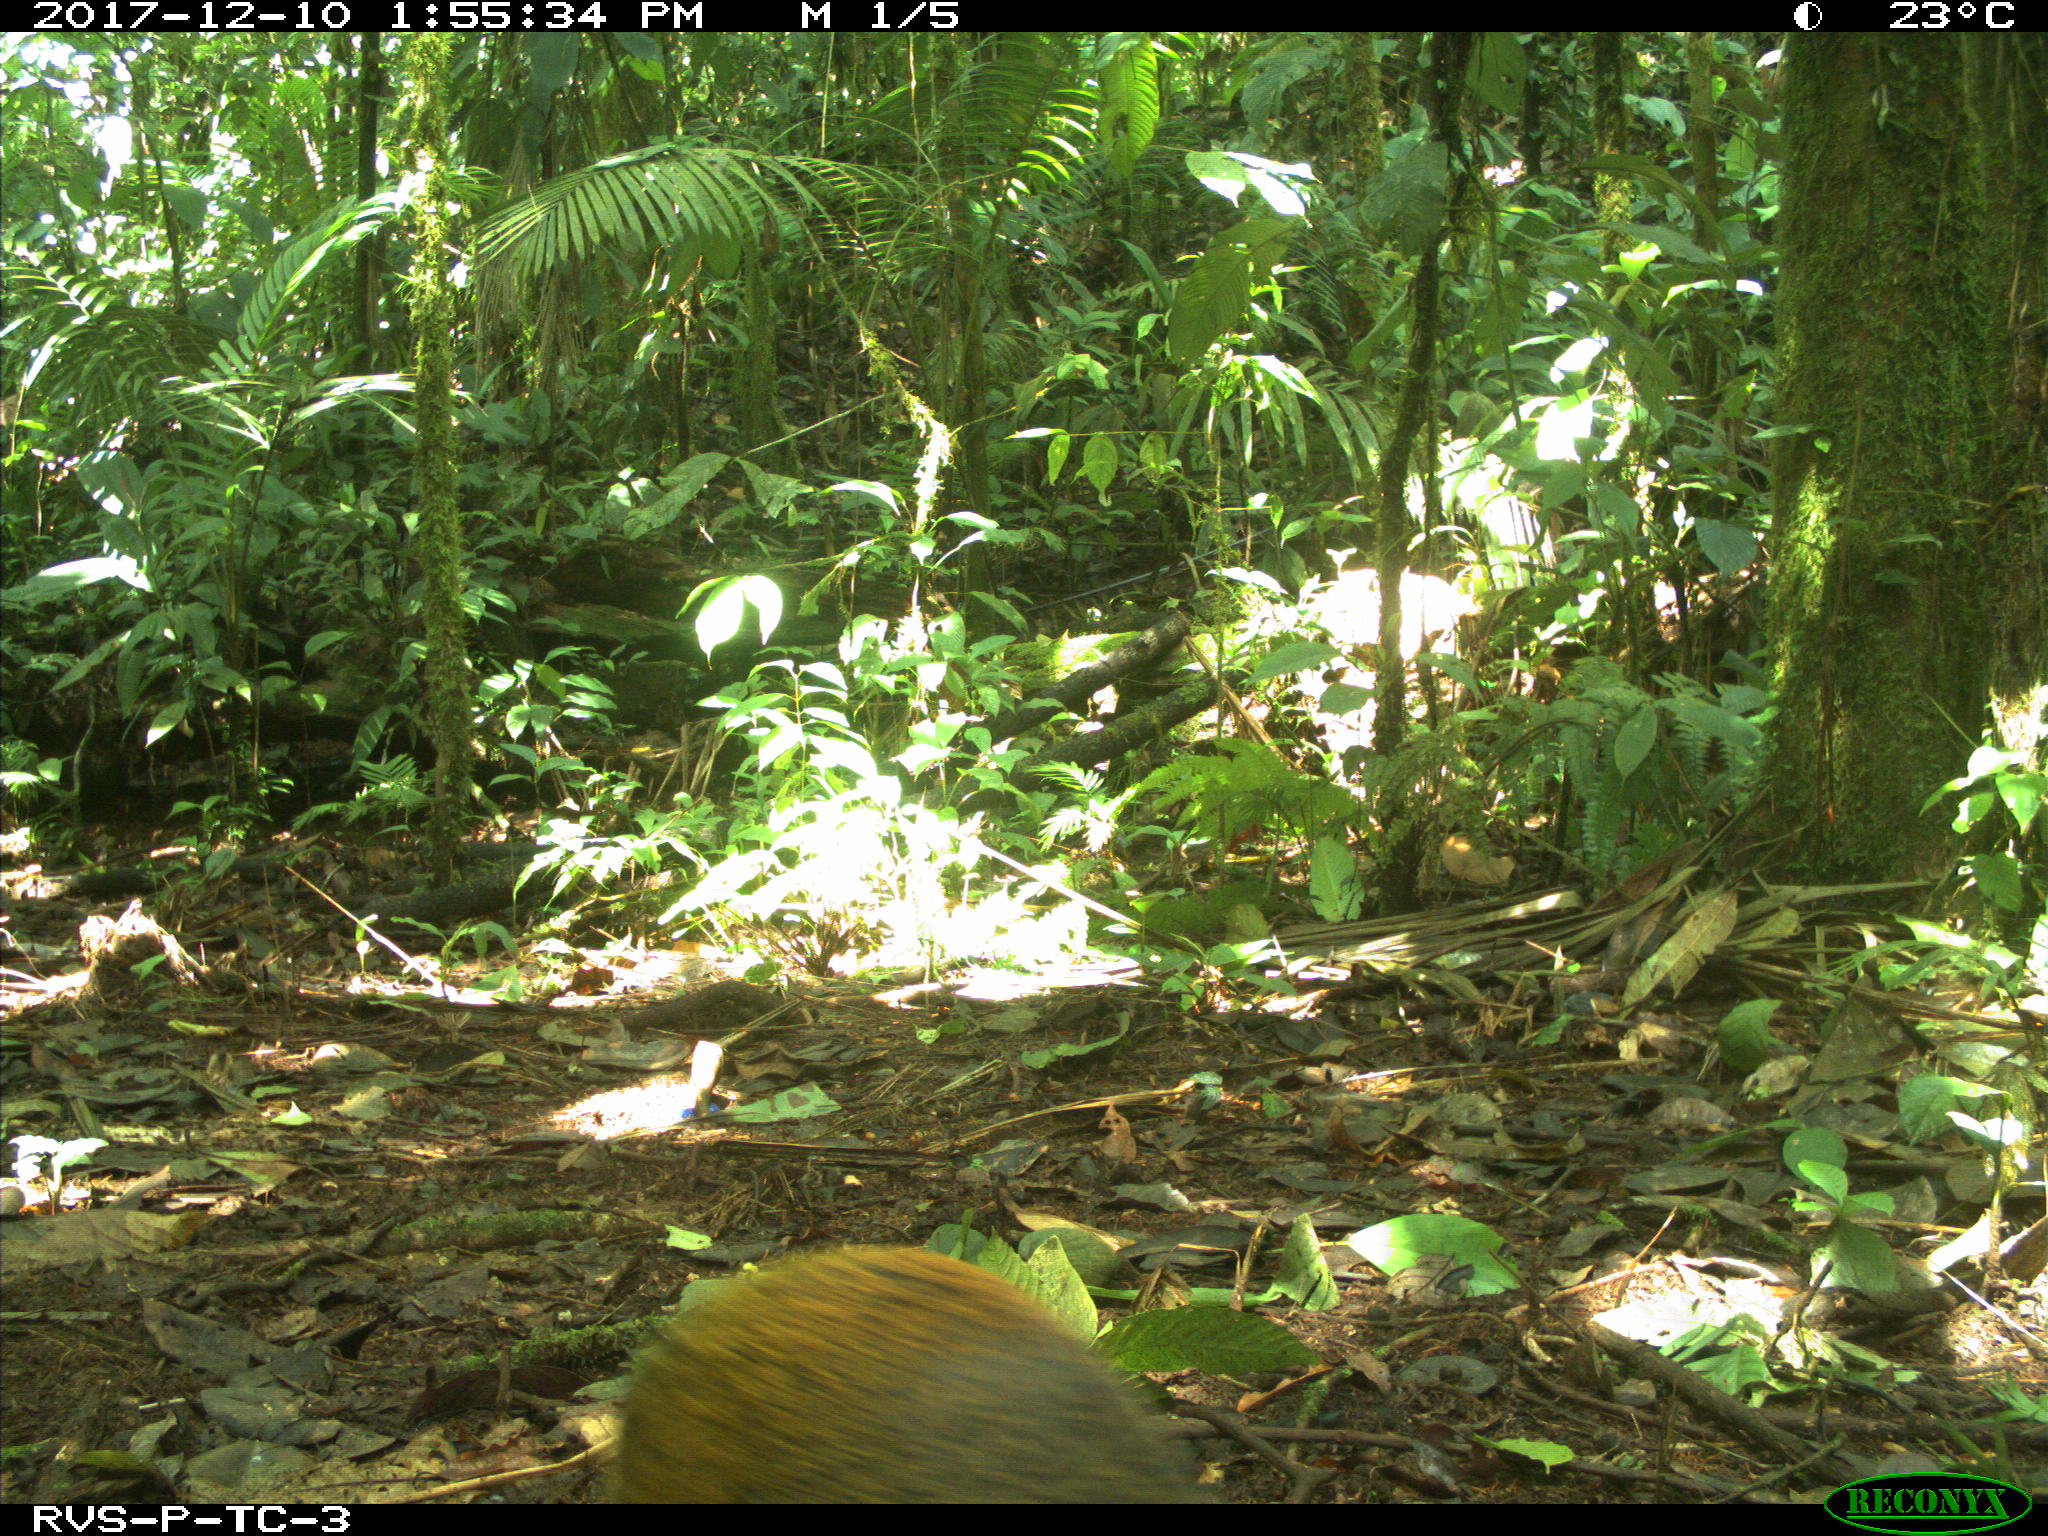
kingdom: Animalia
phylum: Chordata
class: Mammalia
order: Rodentia
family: Dasyproctidae
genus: Dasyprocta
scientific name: Dasyprocta punctata
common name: Central american agouti
